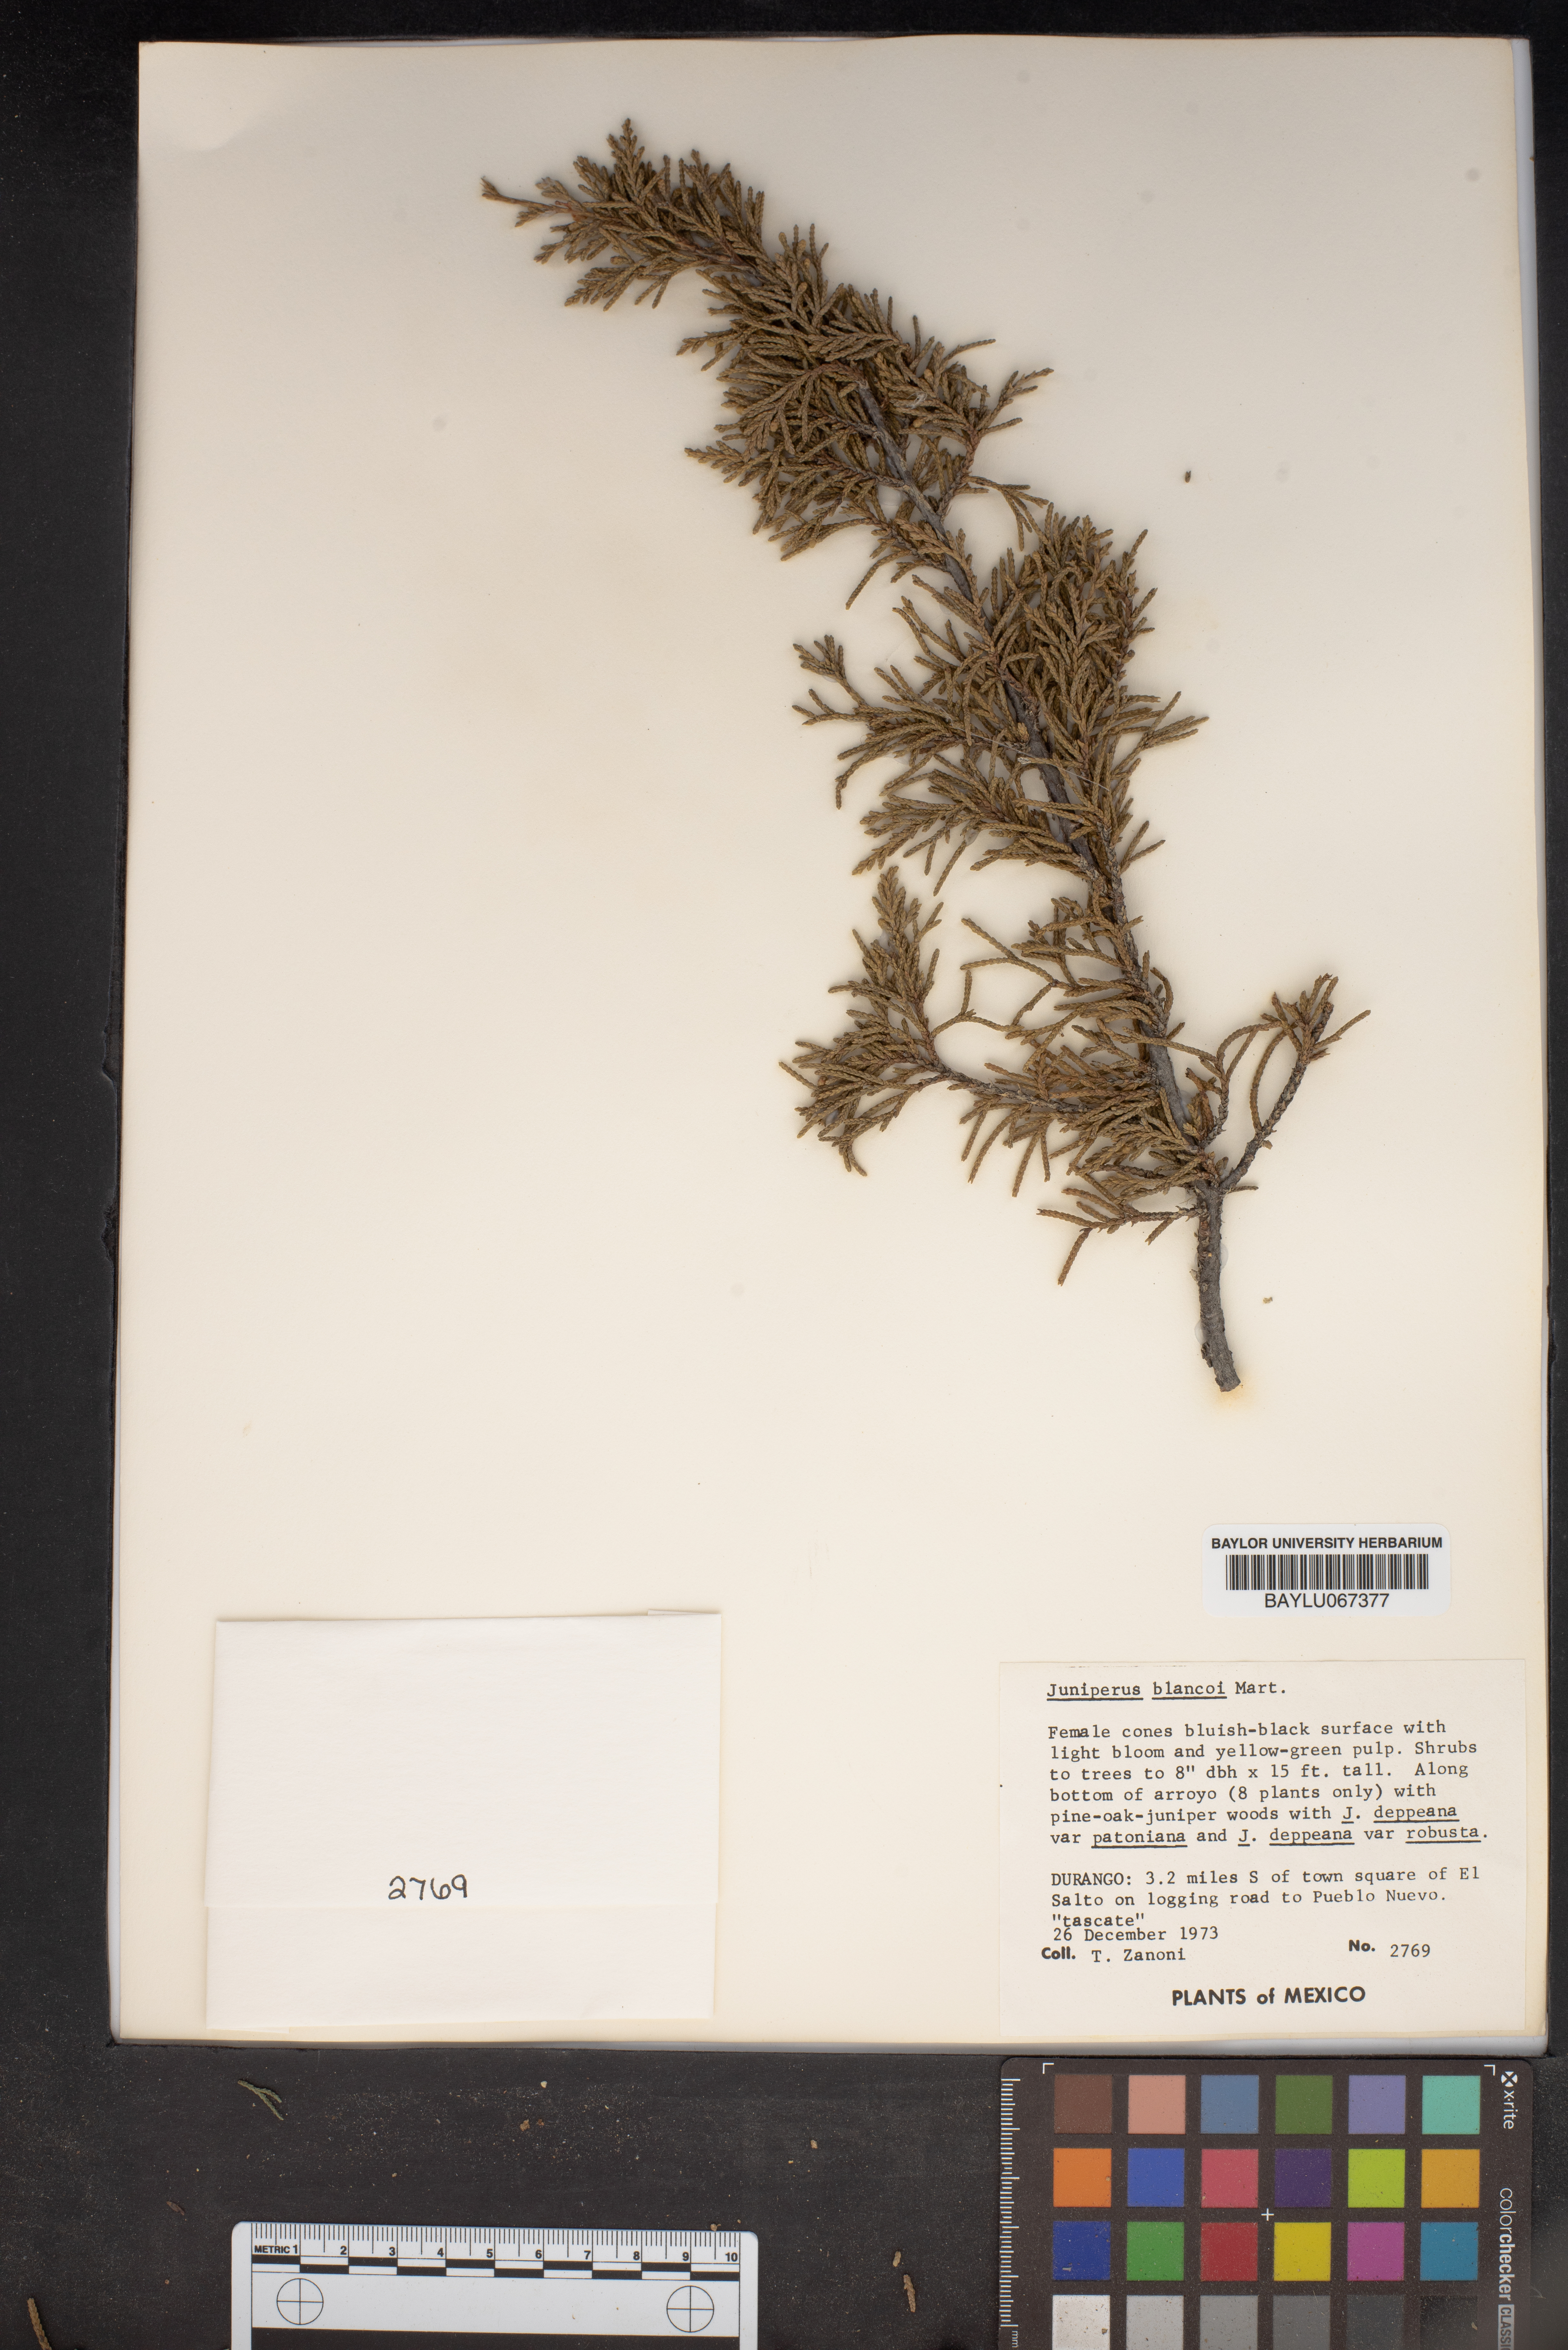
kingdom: Plantae
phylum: Tracheophyta
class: Pinopsida
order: Pinales
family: Cupressaceae
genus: Juniperus
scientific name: Juniperus blancoi
